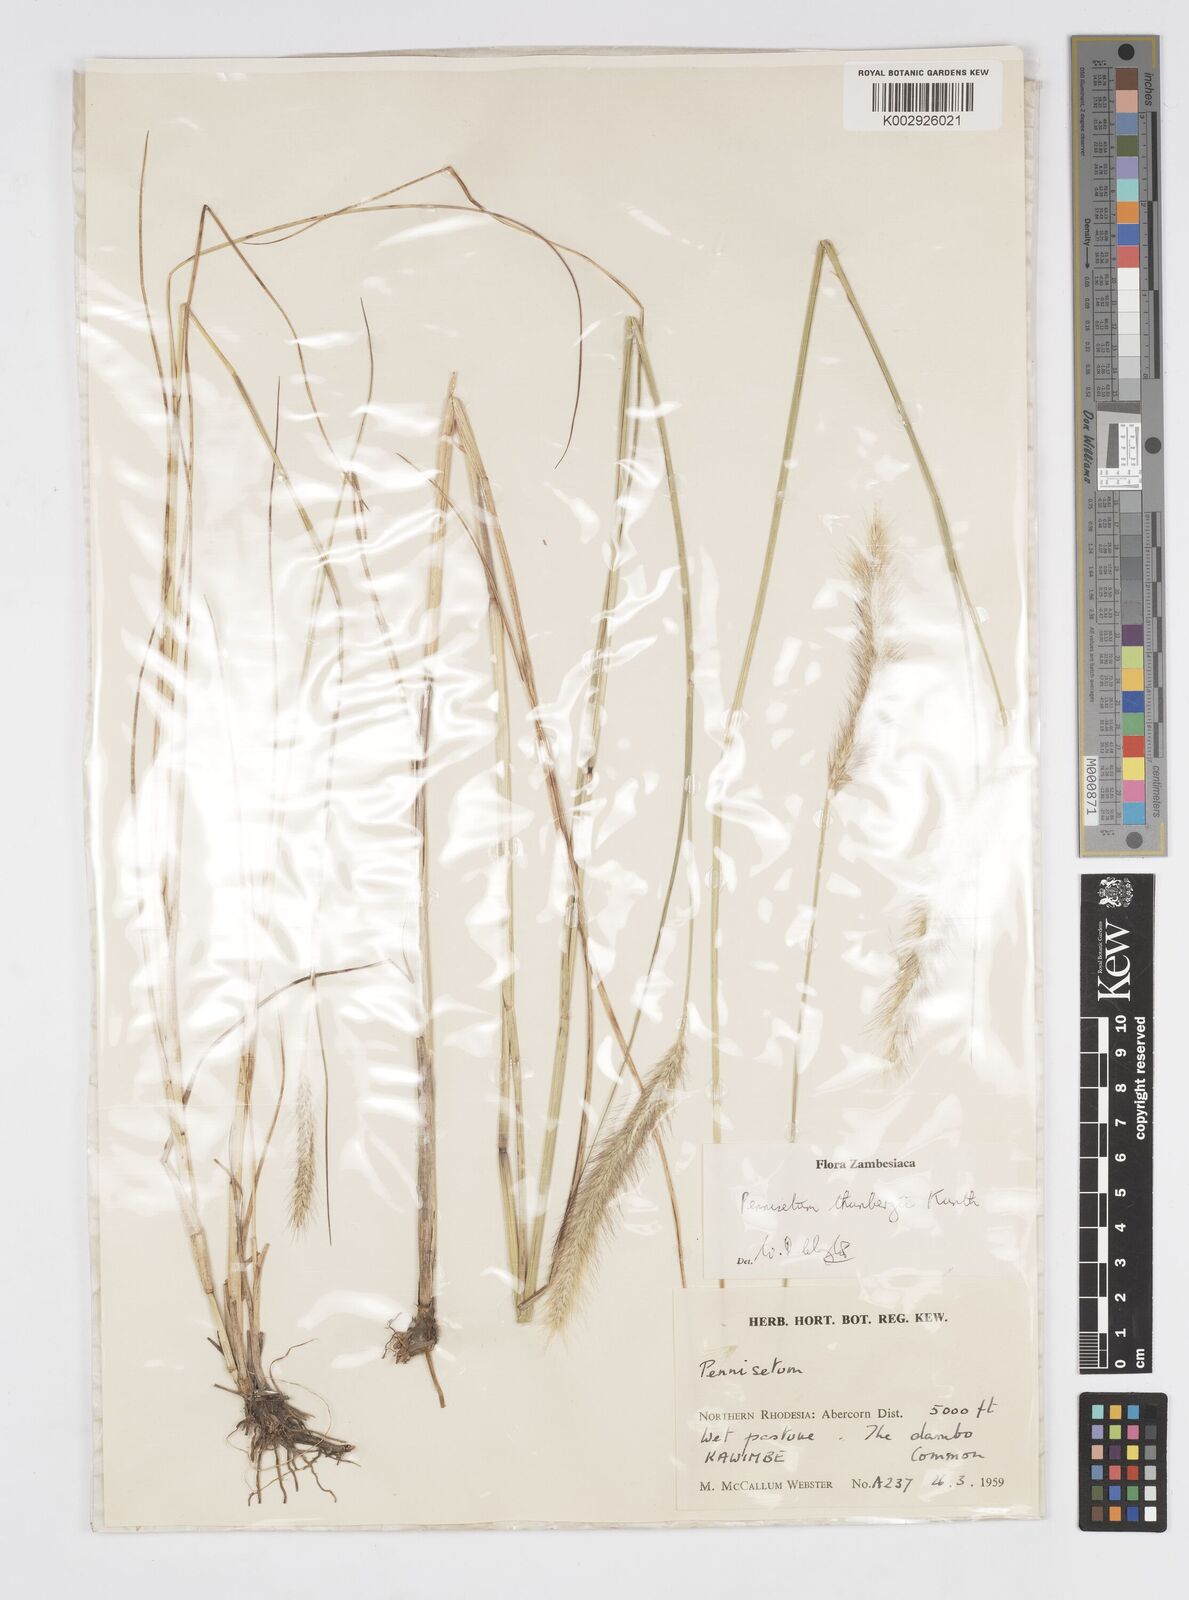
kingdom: Plantae
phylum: Tracheophyta
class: Liliopsida
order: Poales
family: Poaceae
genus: Cenchrus
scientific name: Cenchrus geniculatus
